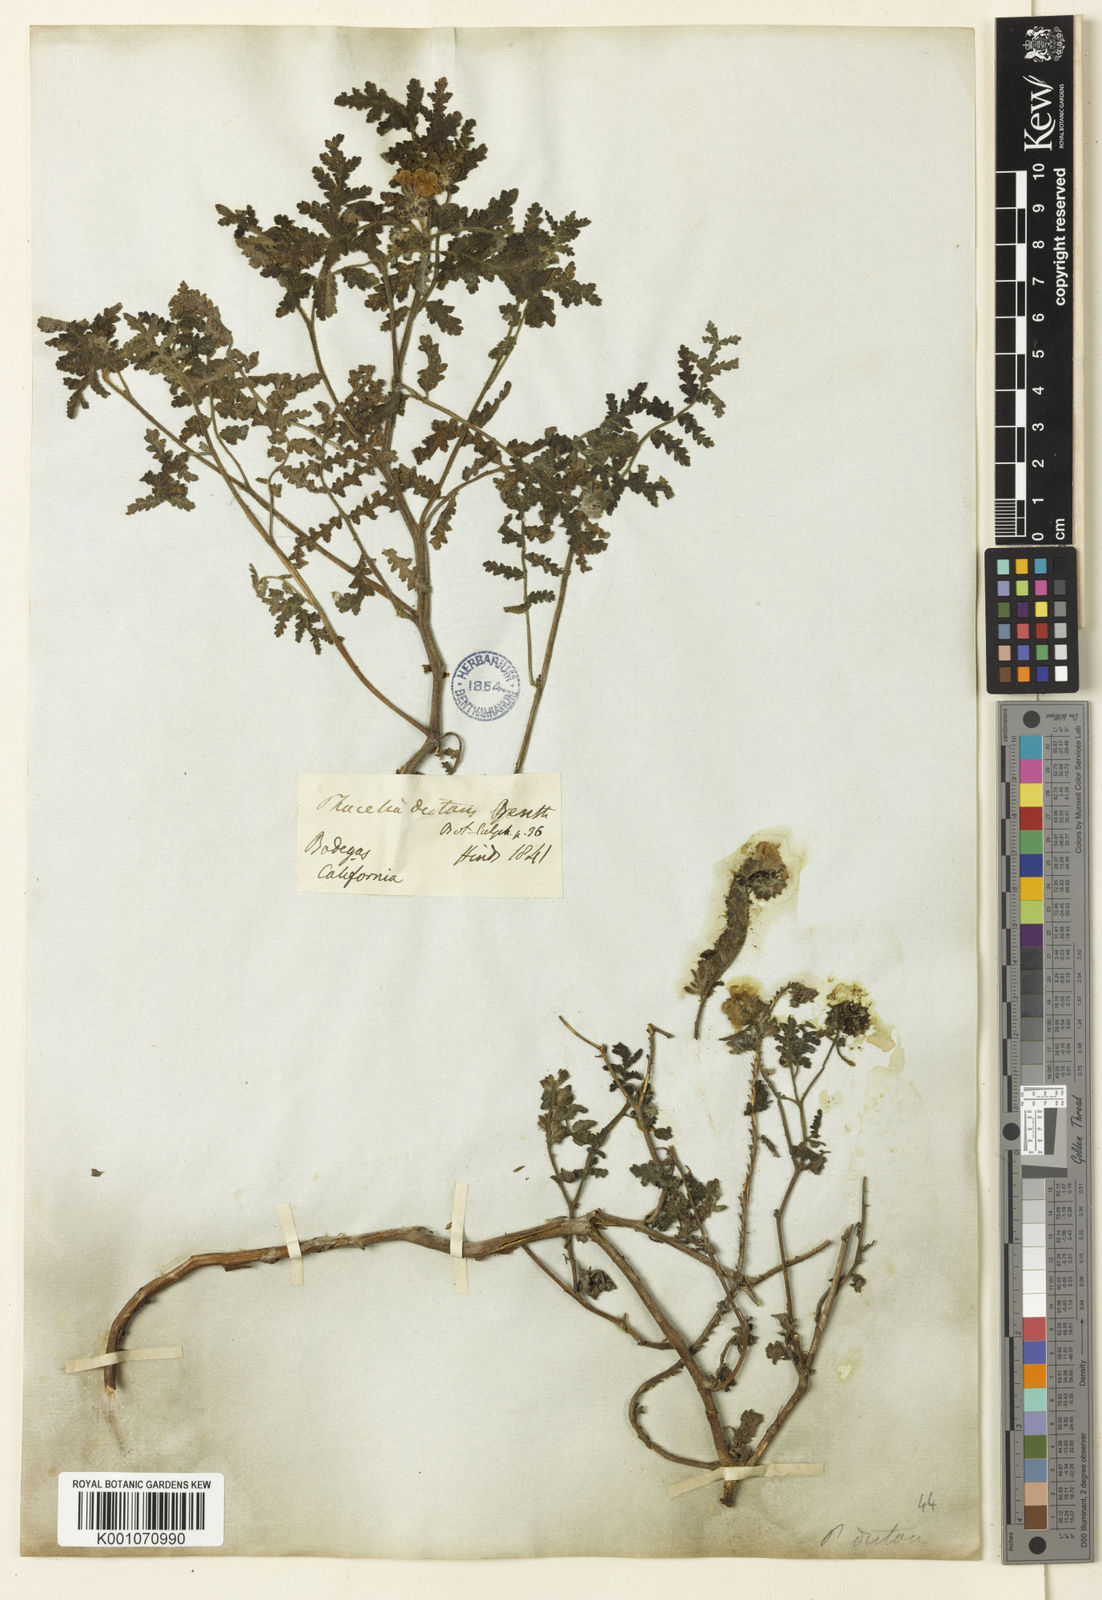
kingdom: Plantae
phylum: Tracheophyta
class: Magnoliopsida
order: Boraginales
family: Hydrophyllaceae
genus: Phacelia
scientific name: Phacelia distans
